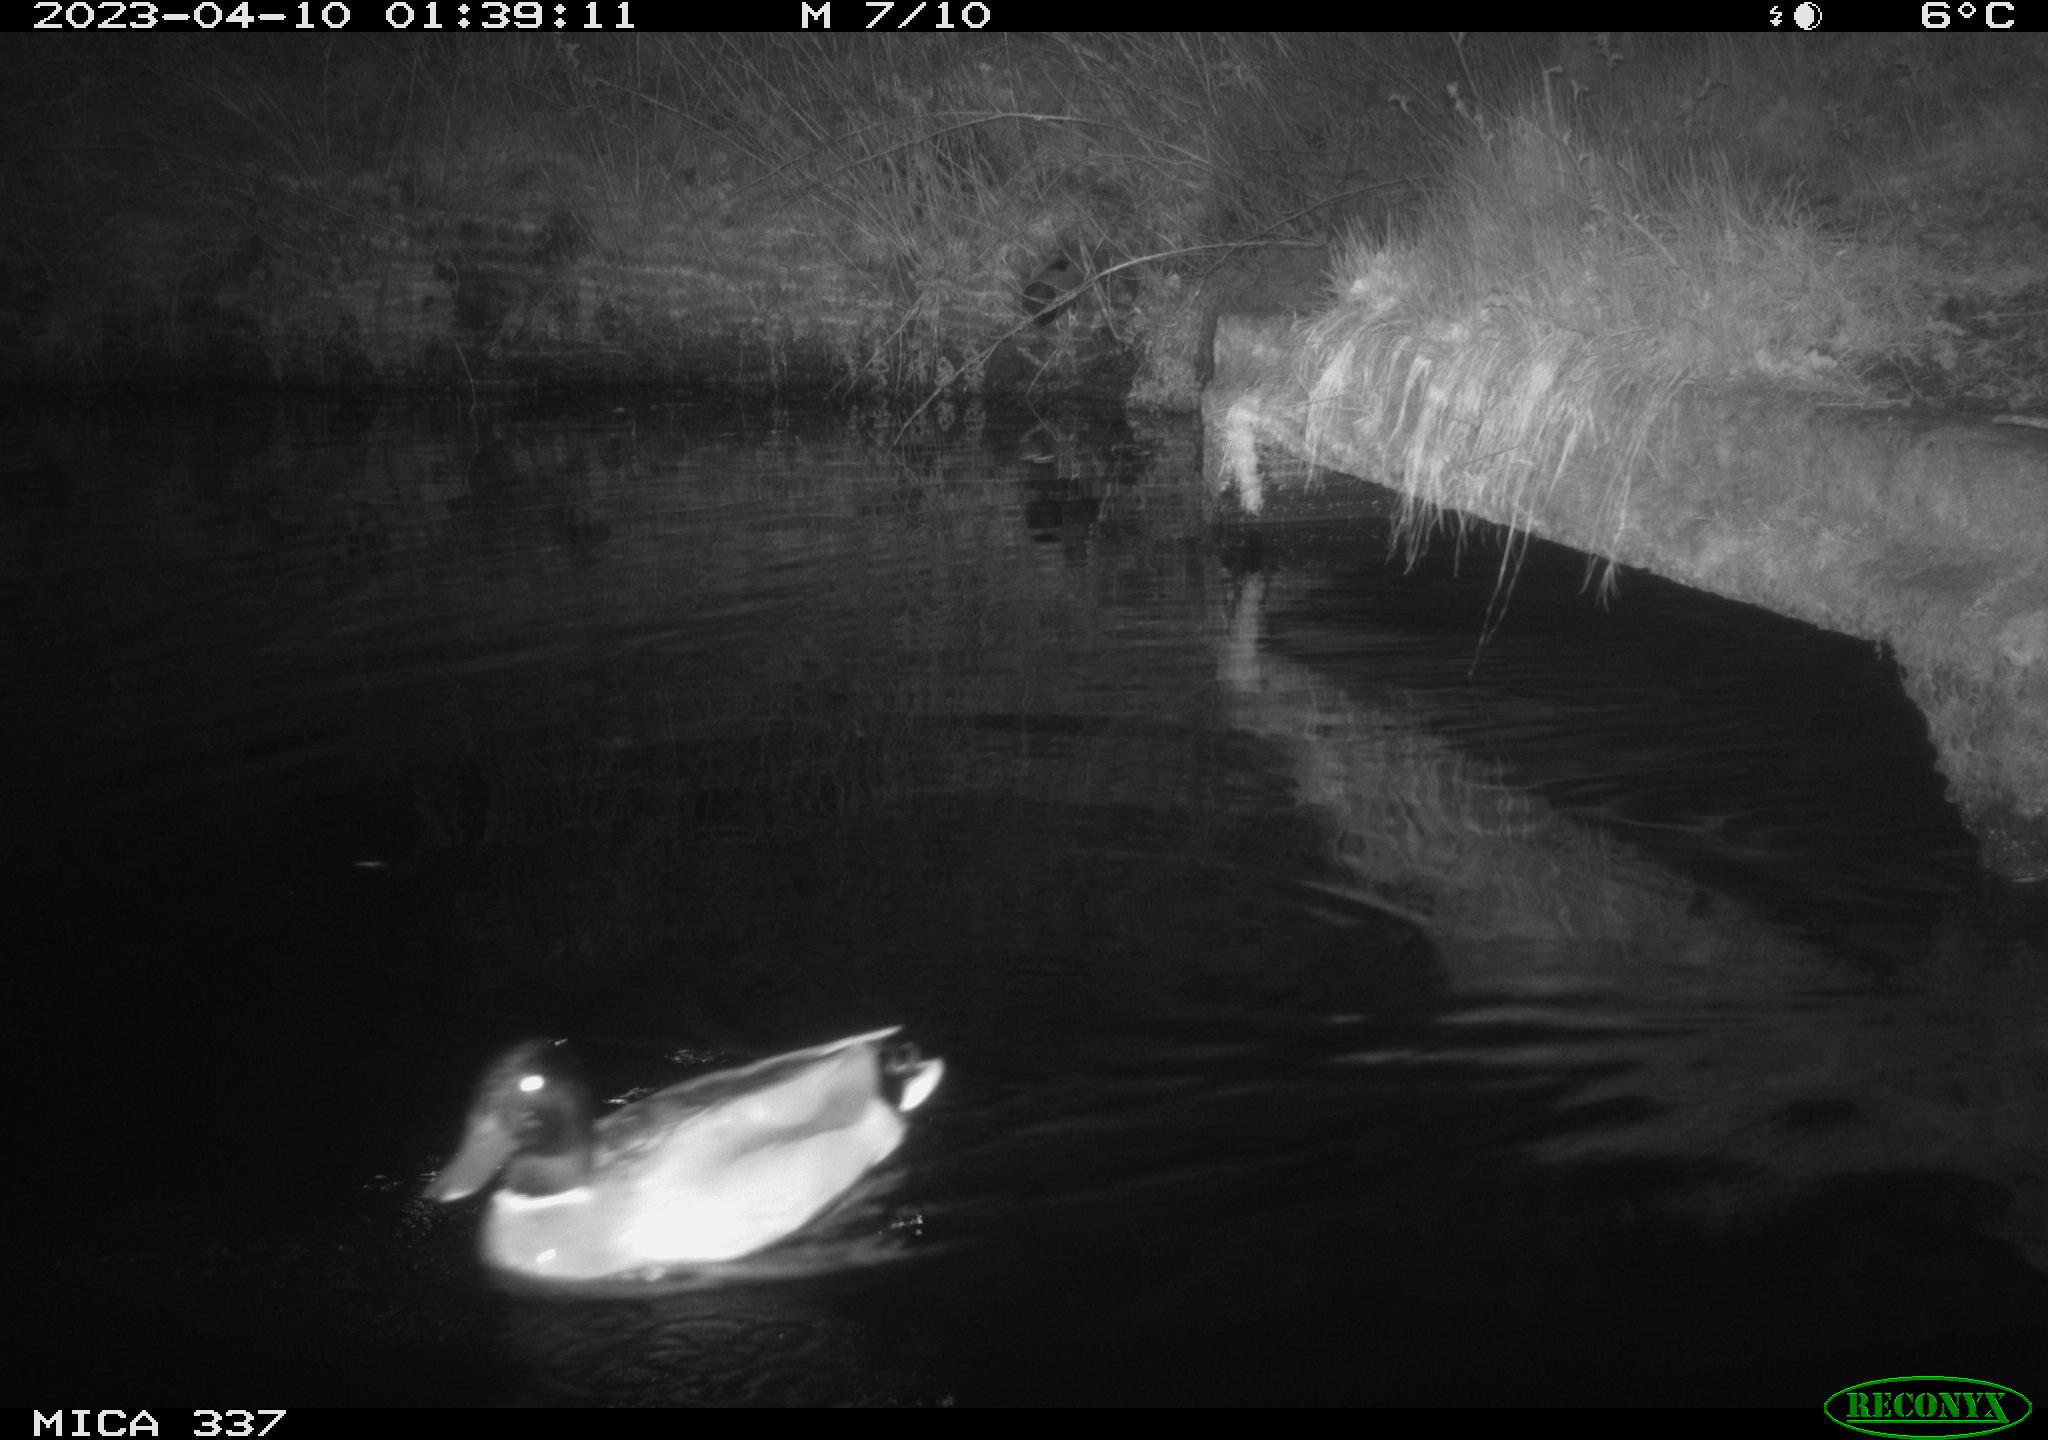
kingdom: Animalia
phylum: Chordata
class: Aves
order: Anseriformes
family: Anatidae
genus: Anas
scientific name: Anas
